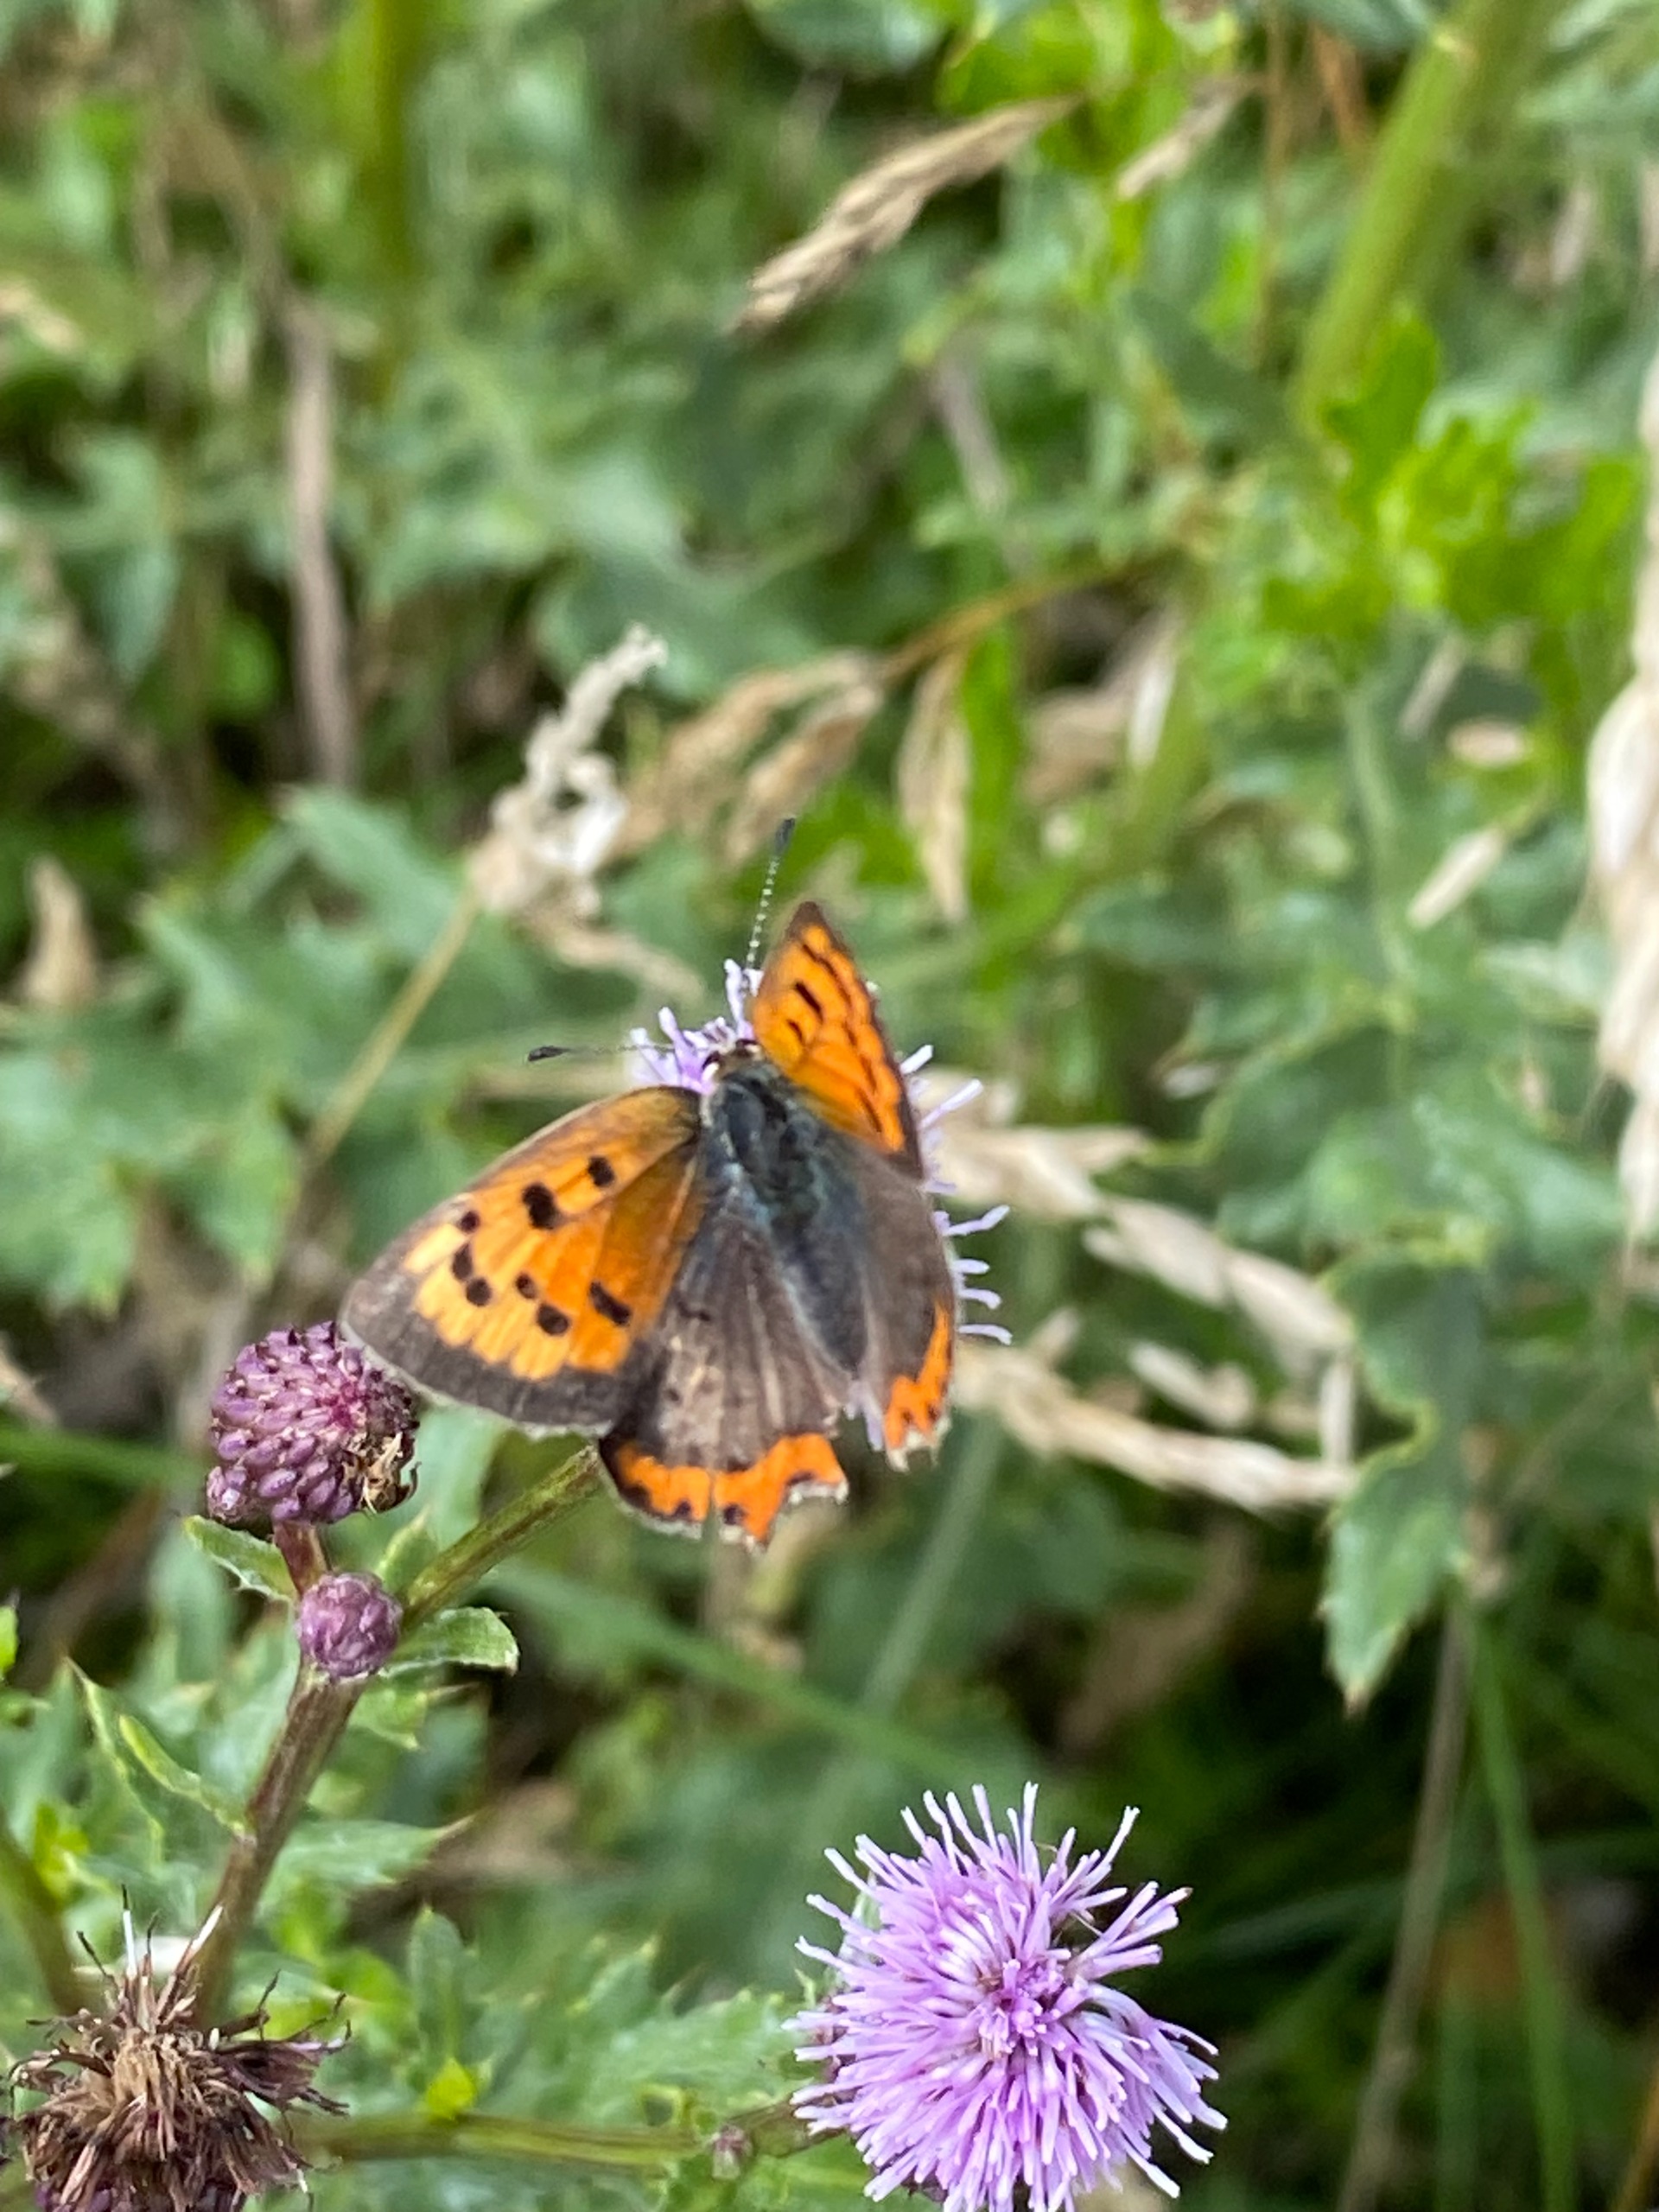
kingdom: Animalia
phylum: Arthropoda
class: Insecta
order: Lepidoptera
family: Lycaenidae
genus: Lycaena
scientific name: Lycaena phlaeas
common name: Lille ildfugl
